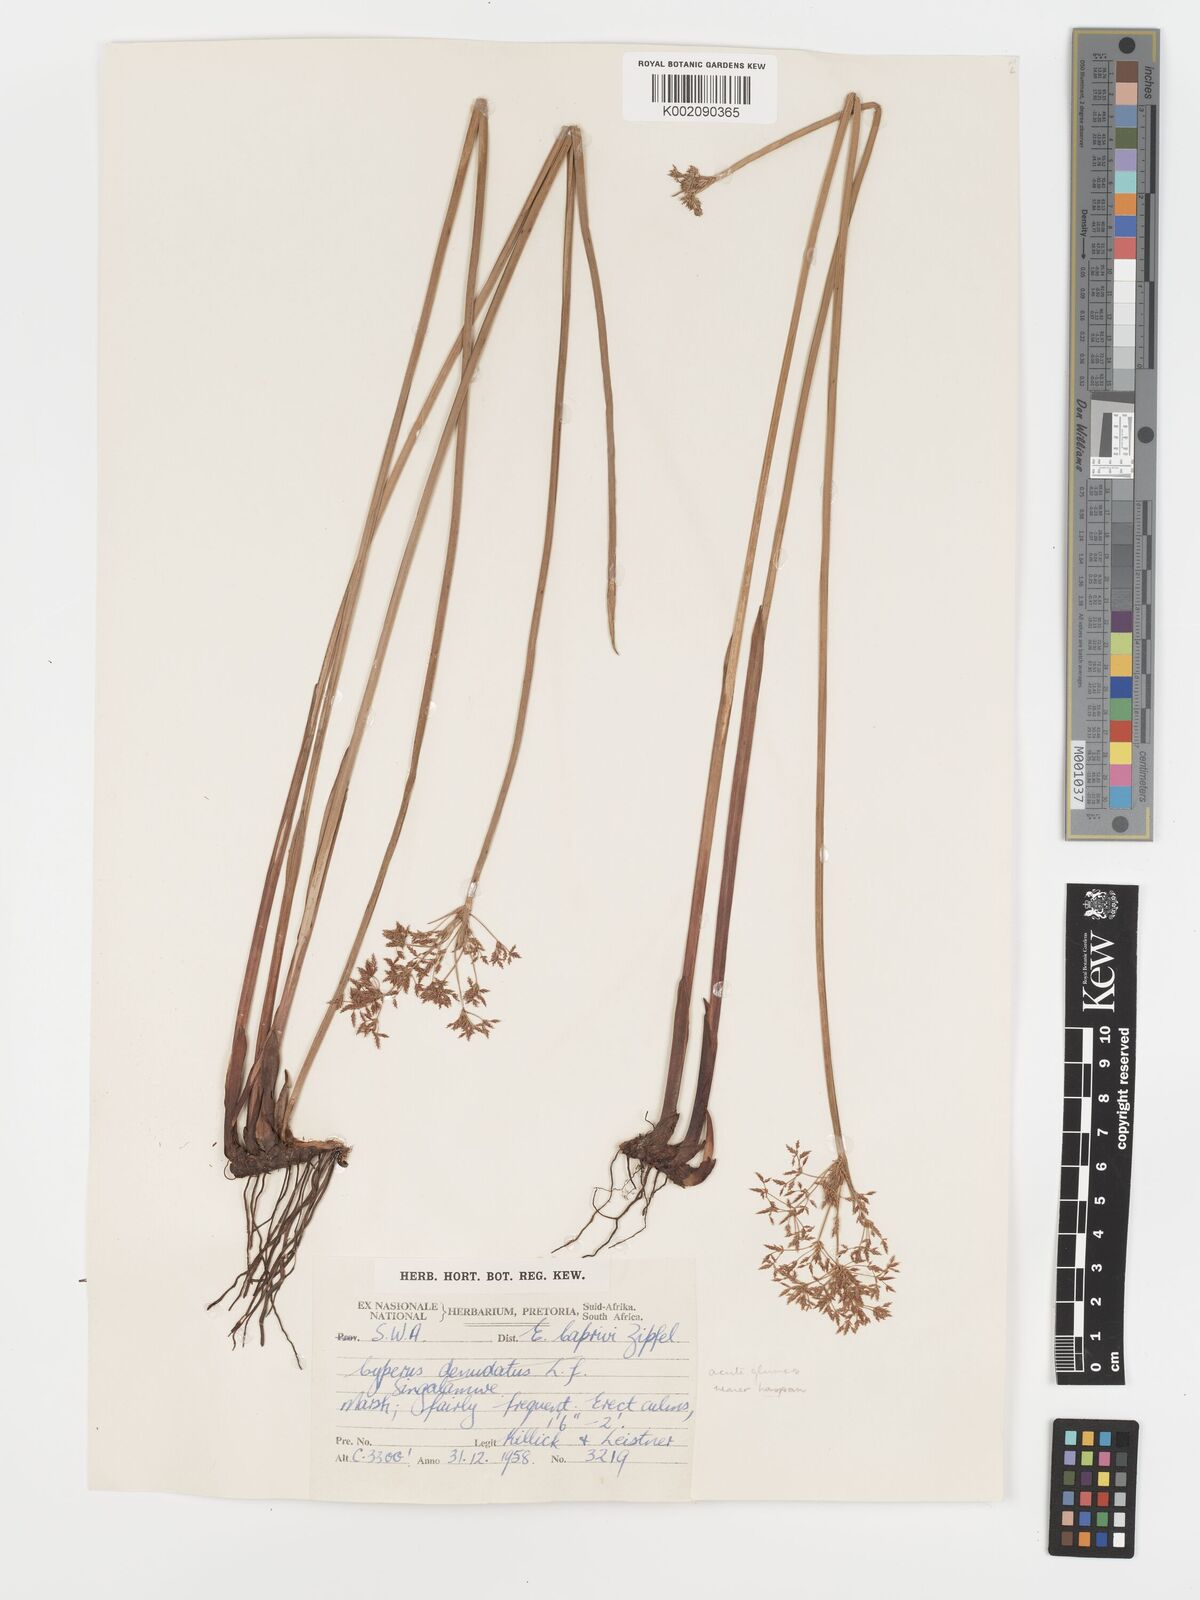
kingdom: Plantae
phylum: Tracheophyta
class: Liliopsida
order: Poales
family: Cyperaceae
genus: Cyperus
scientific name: Cyperus haspan
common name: Haspan flatsedge
